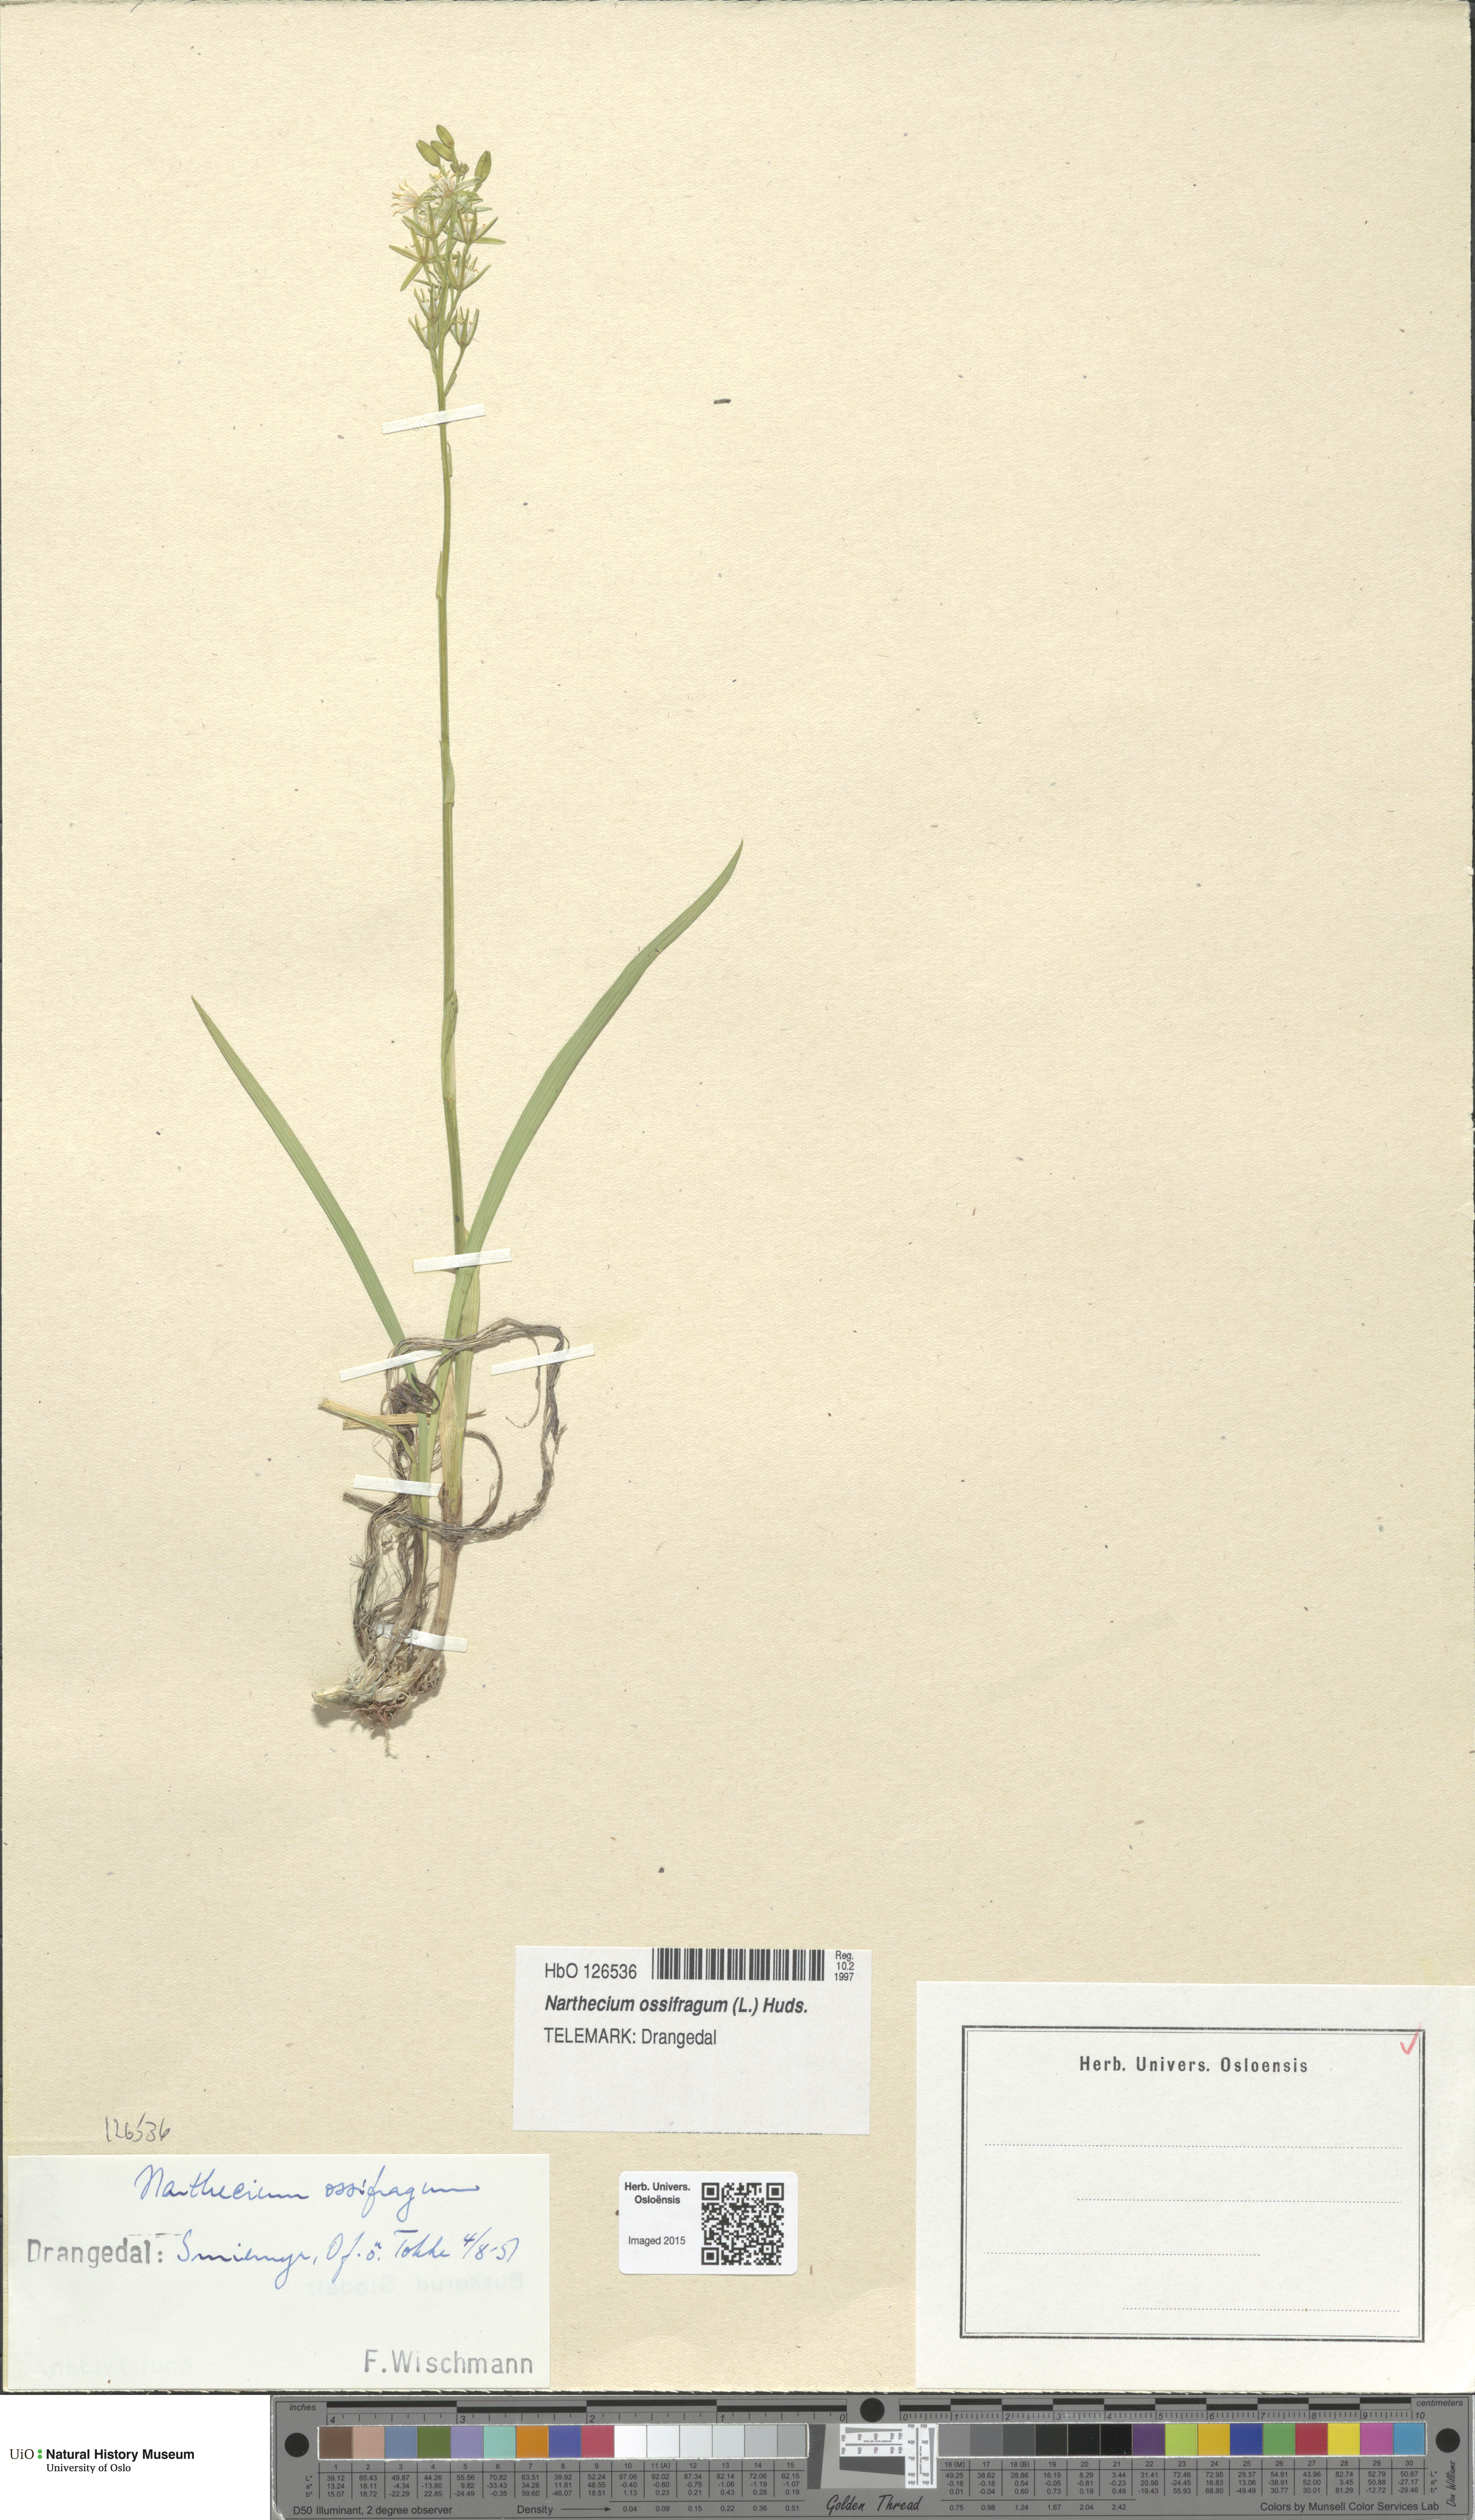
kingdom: Plantae
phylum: Tracheophyta
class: Liliopsida
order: Dioscoreales
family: Nartheciaceae
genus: Narthecium
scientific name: Narthecium ossifragum
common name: Bog asphodel
